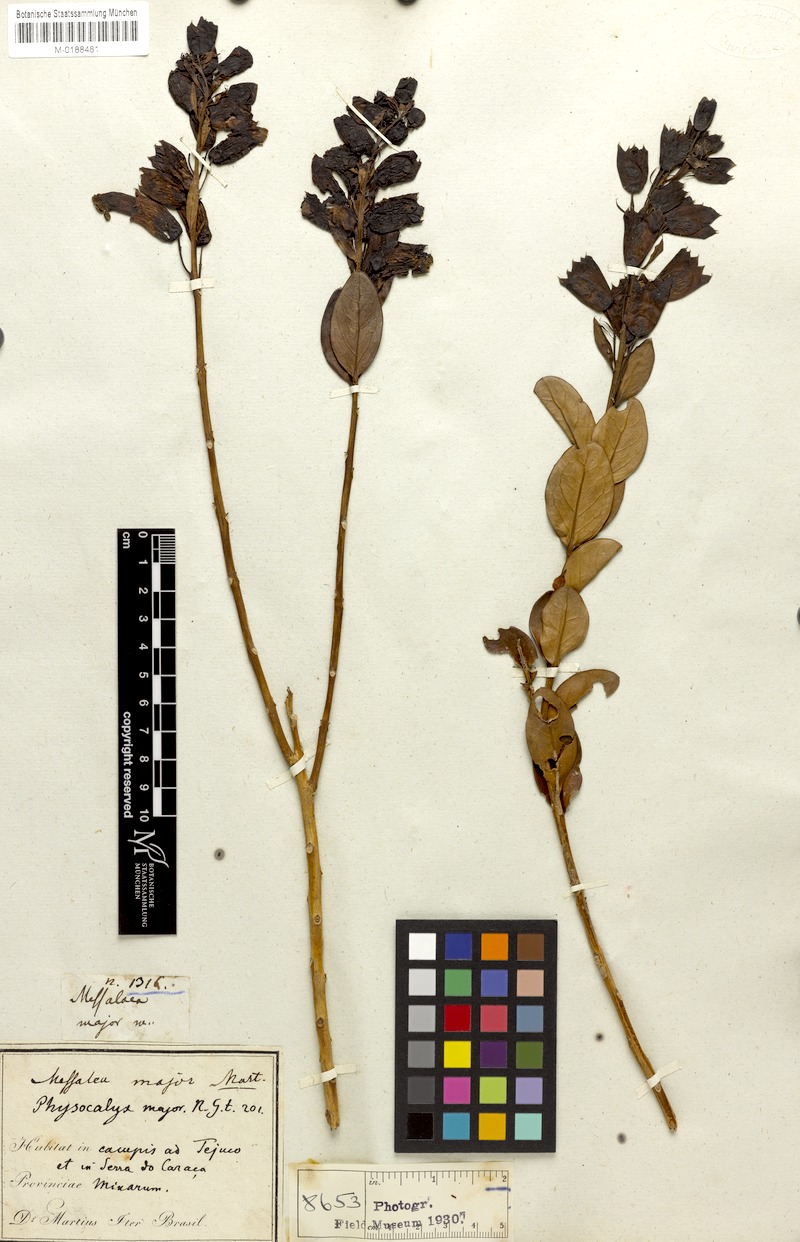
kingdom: Plantae
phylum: Tracheophyta
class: Magnoliopsida
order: Lamiales
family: Orobanchaceae
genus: Physocalyx
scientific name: Physocalyx major
